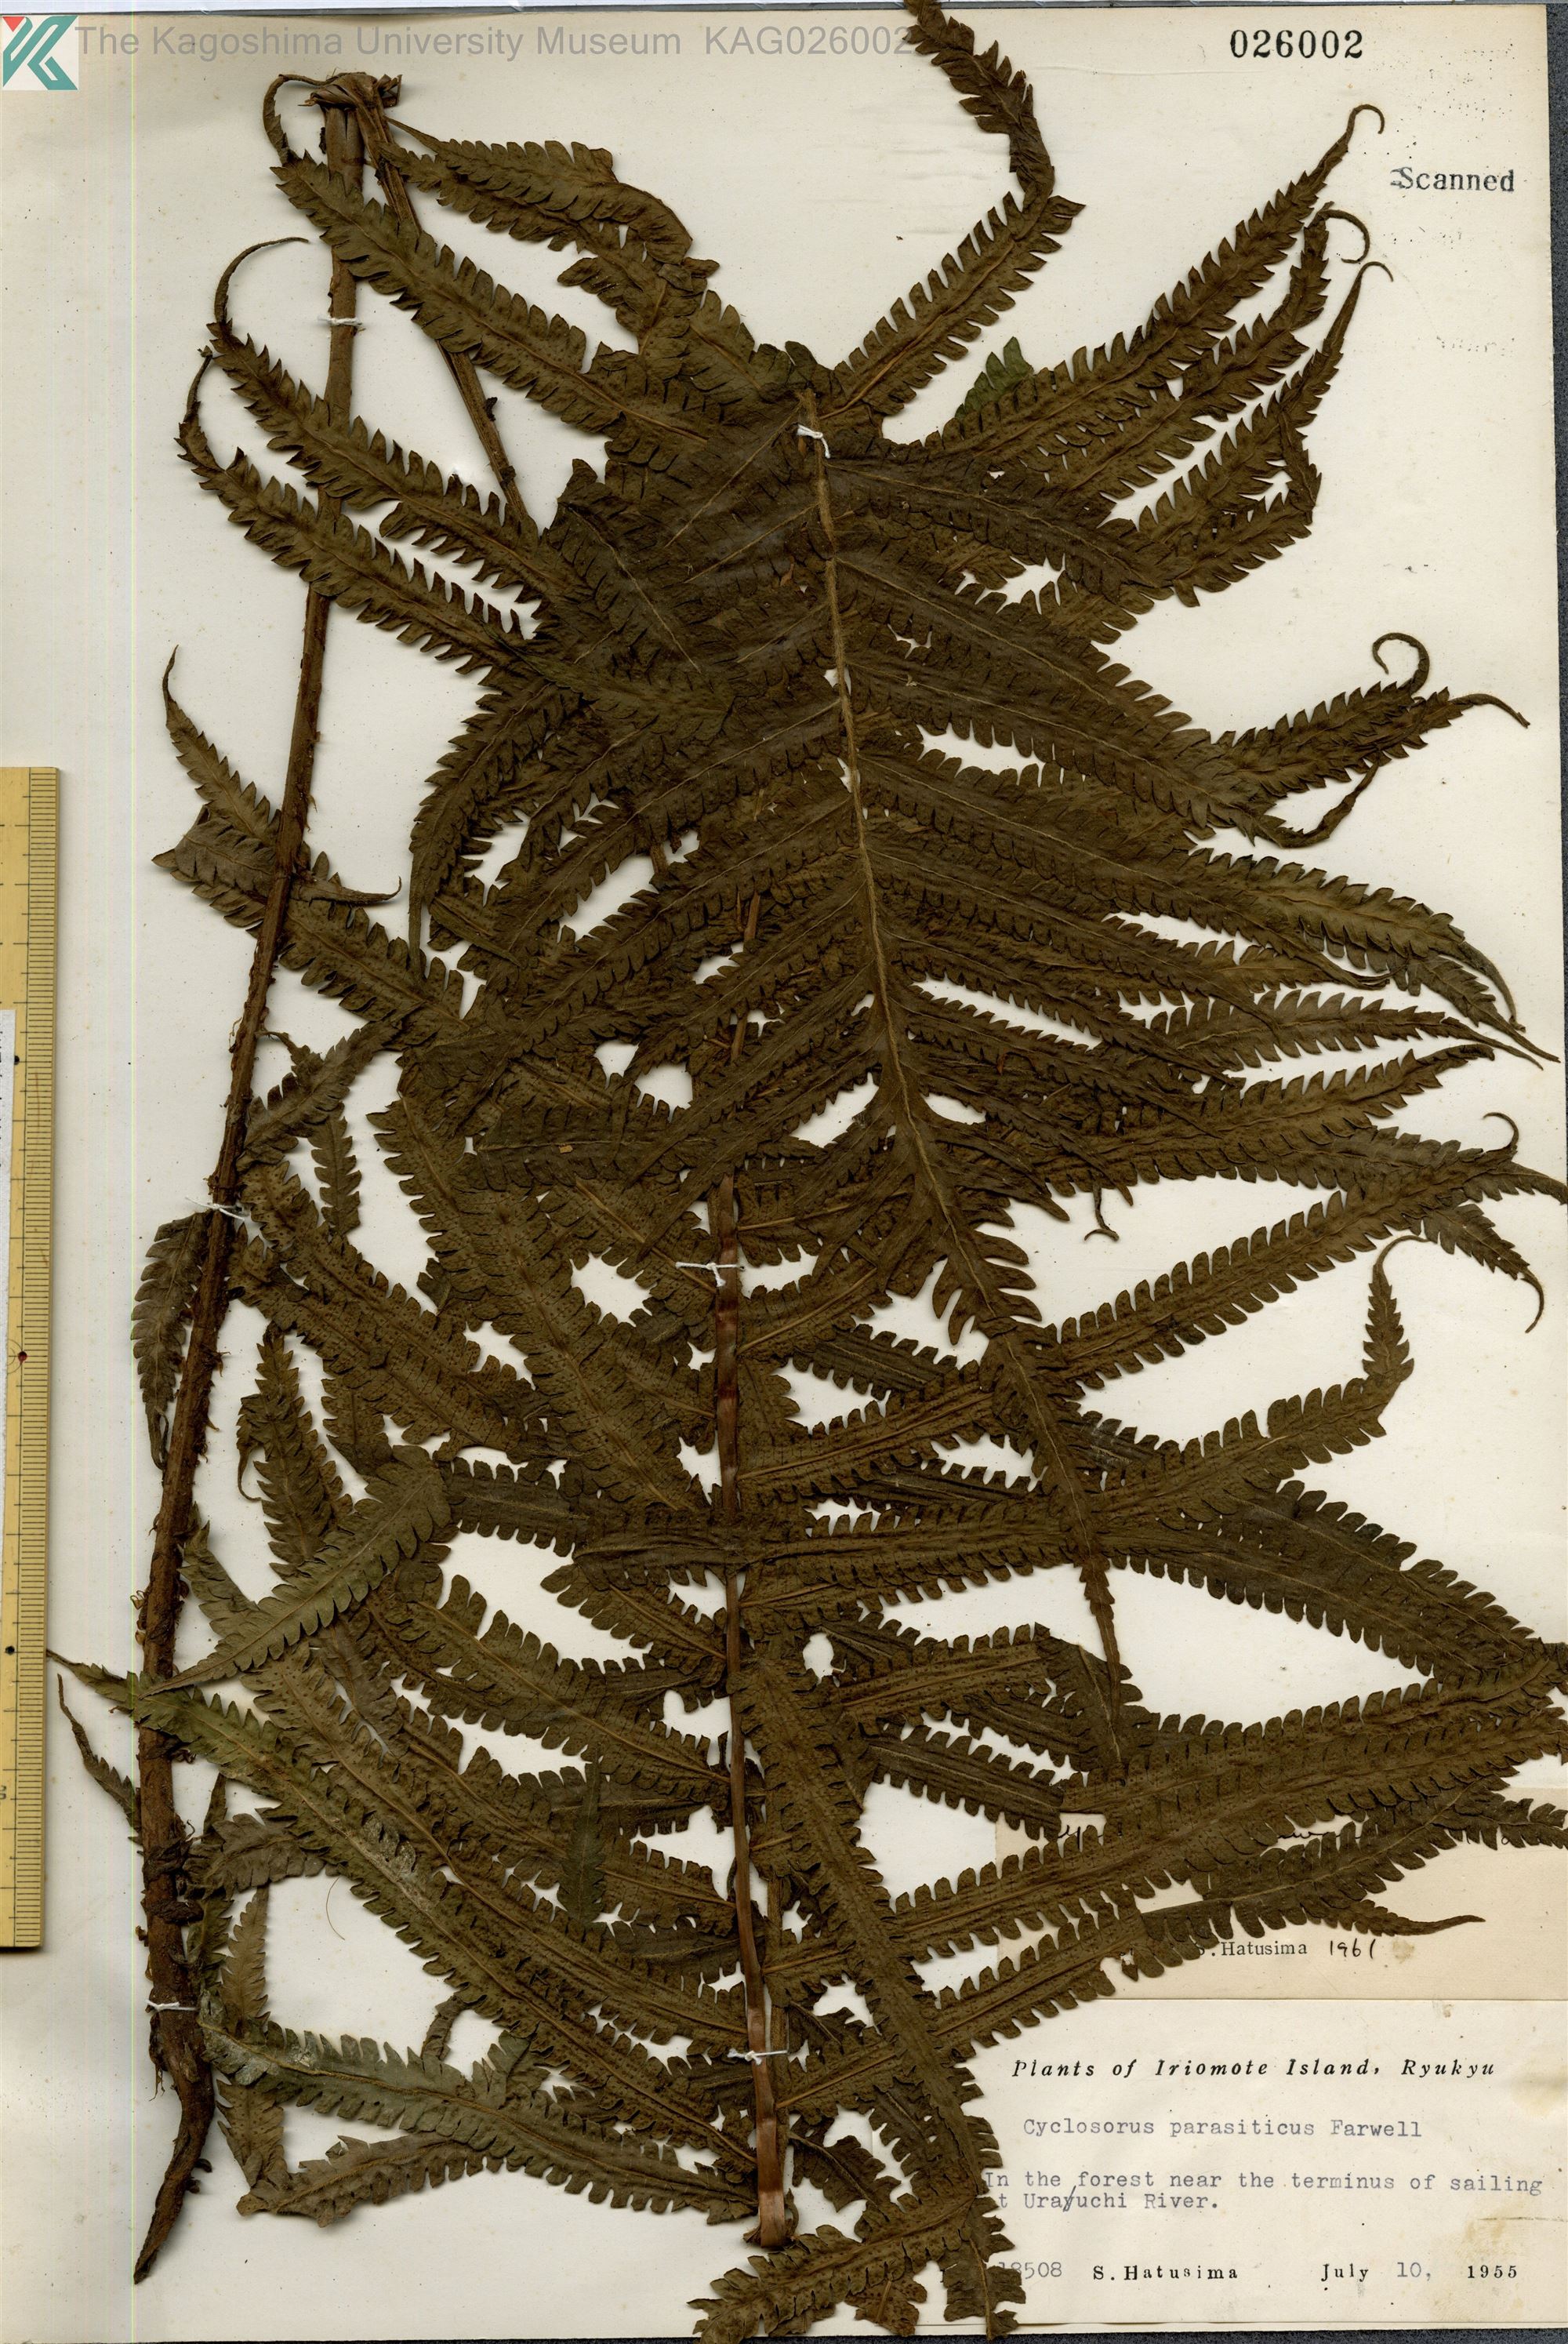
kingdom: Plantae
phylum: Tracheophyta
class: Polypodiopsida
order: Polypodiales
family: Thelypteridaceae
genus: Sphaerostephanos
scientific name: Sphaerostephanos taiwanensis
